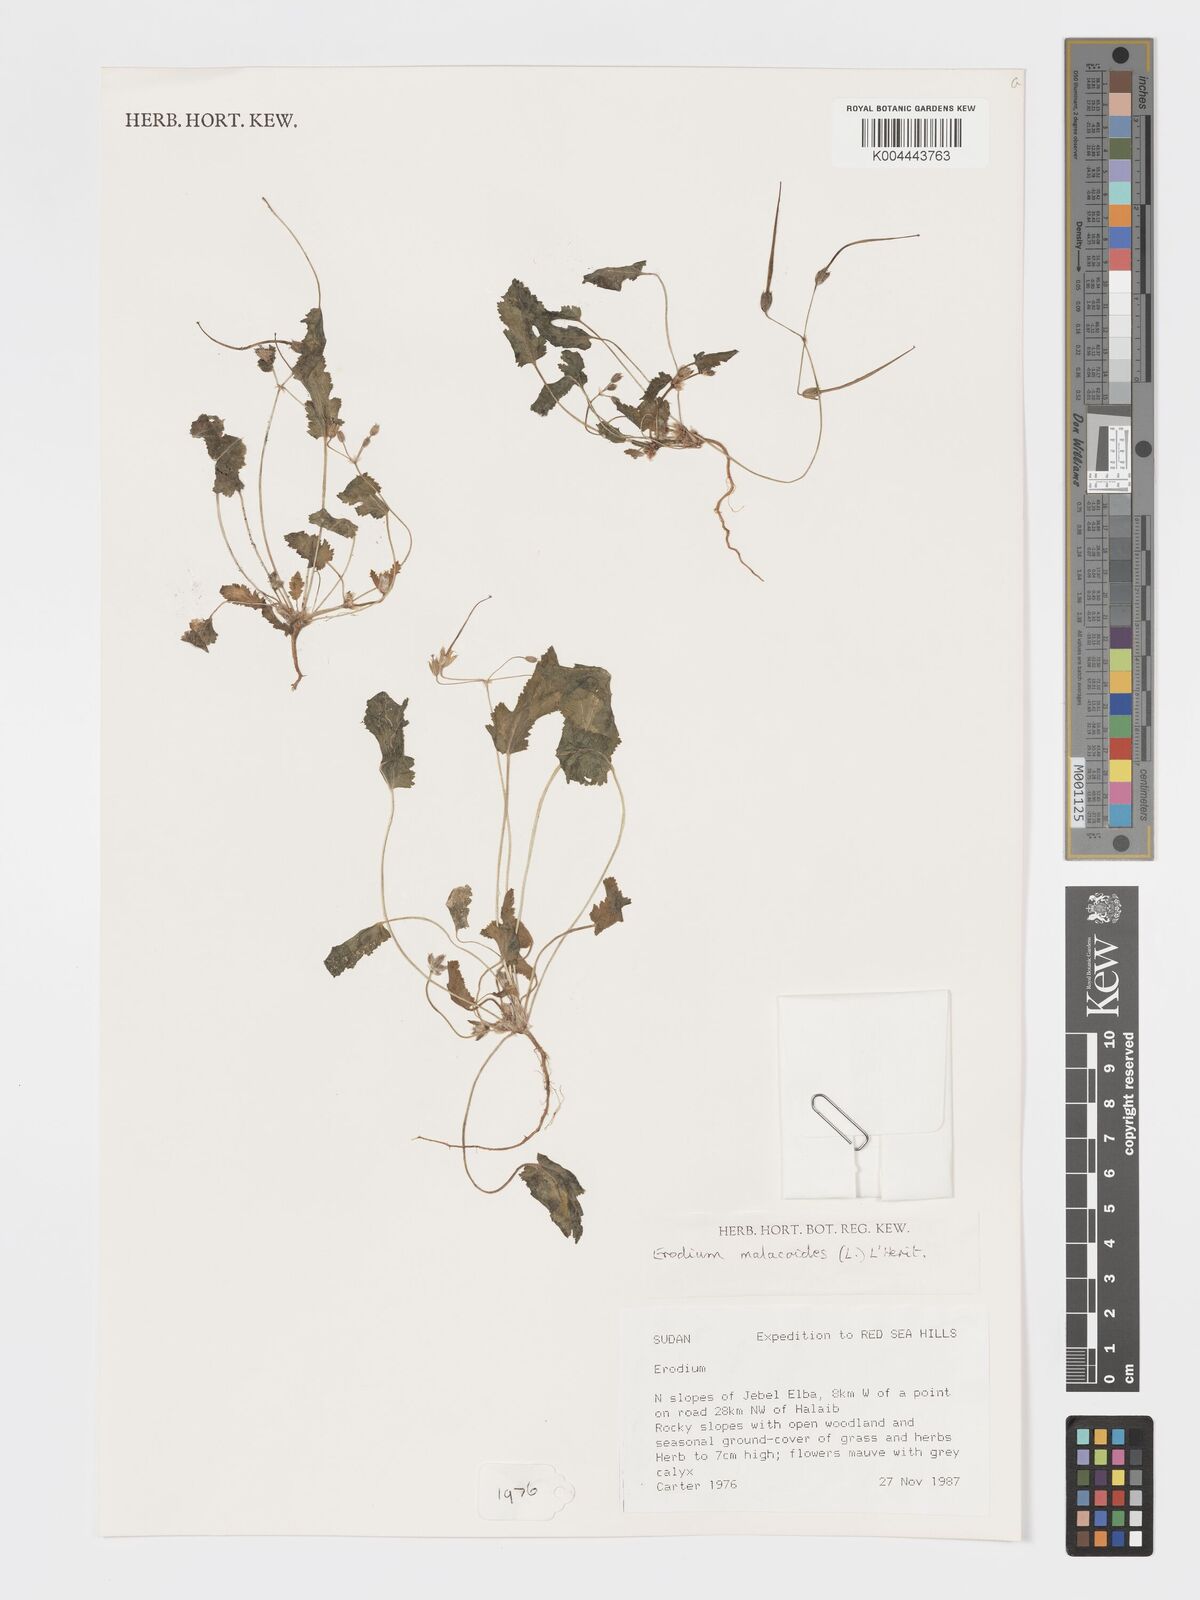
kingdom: Plantae
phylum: Tracheophyta
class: Magnoliopsida
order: Geraniales
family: Geraniaceae
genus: Erodium
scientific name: Erodium malacoides
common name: Soft stork's-bill
